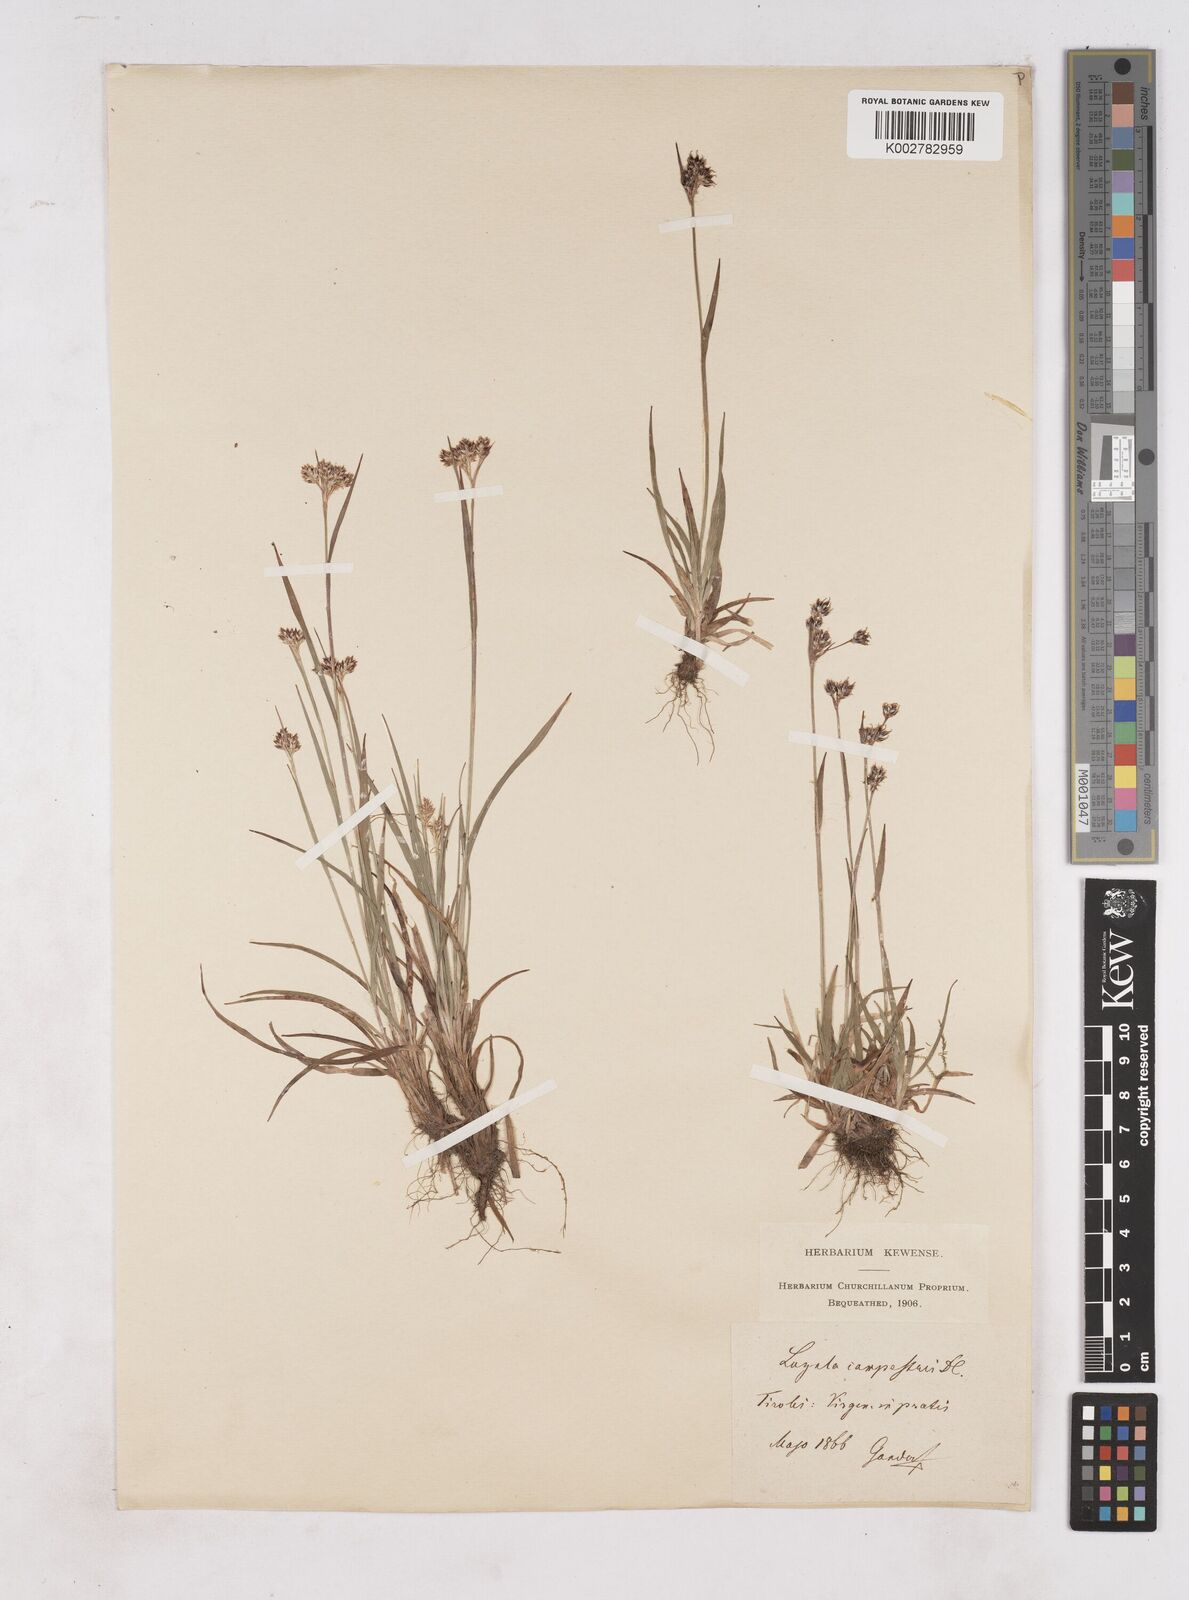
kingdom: Plantae
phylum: Tracheophyta
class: Liliopsida
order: Poales
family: Juncaceae
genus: Luzula
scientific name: Luzula campestris
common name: Field wood-rush
